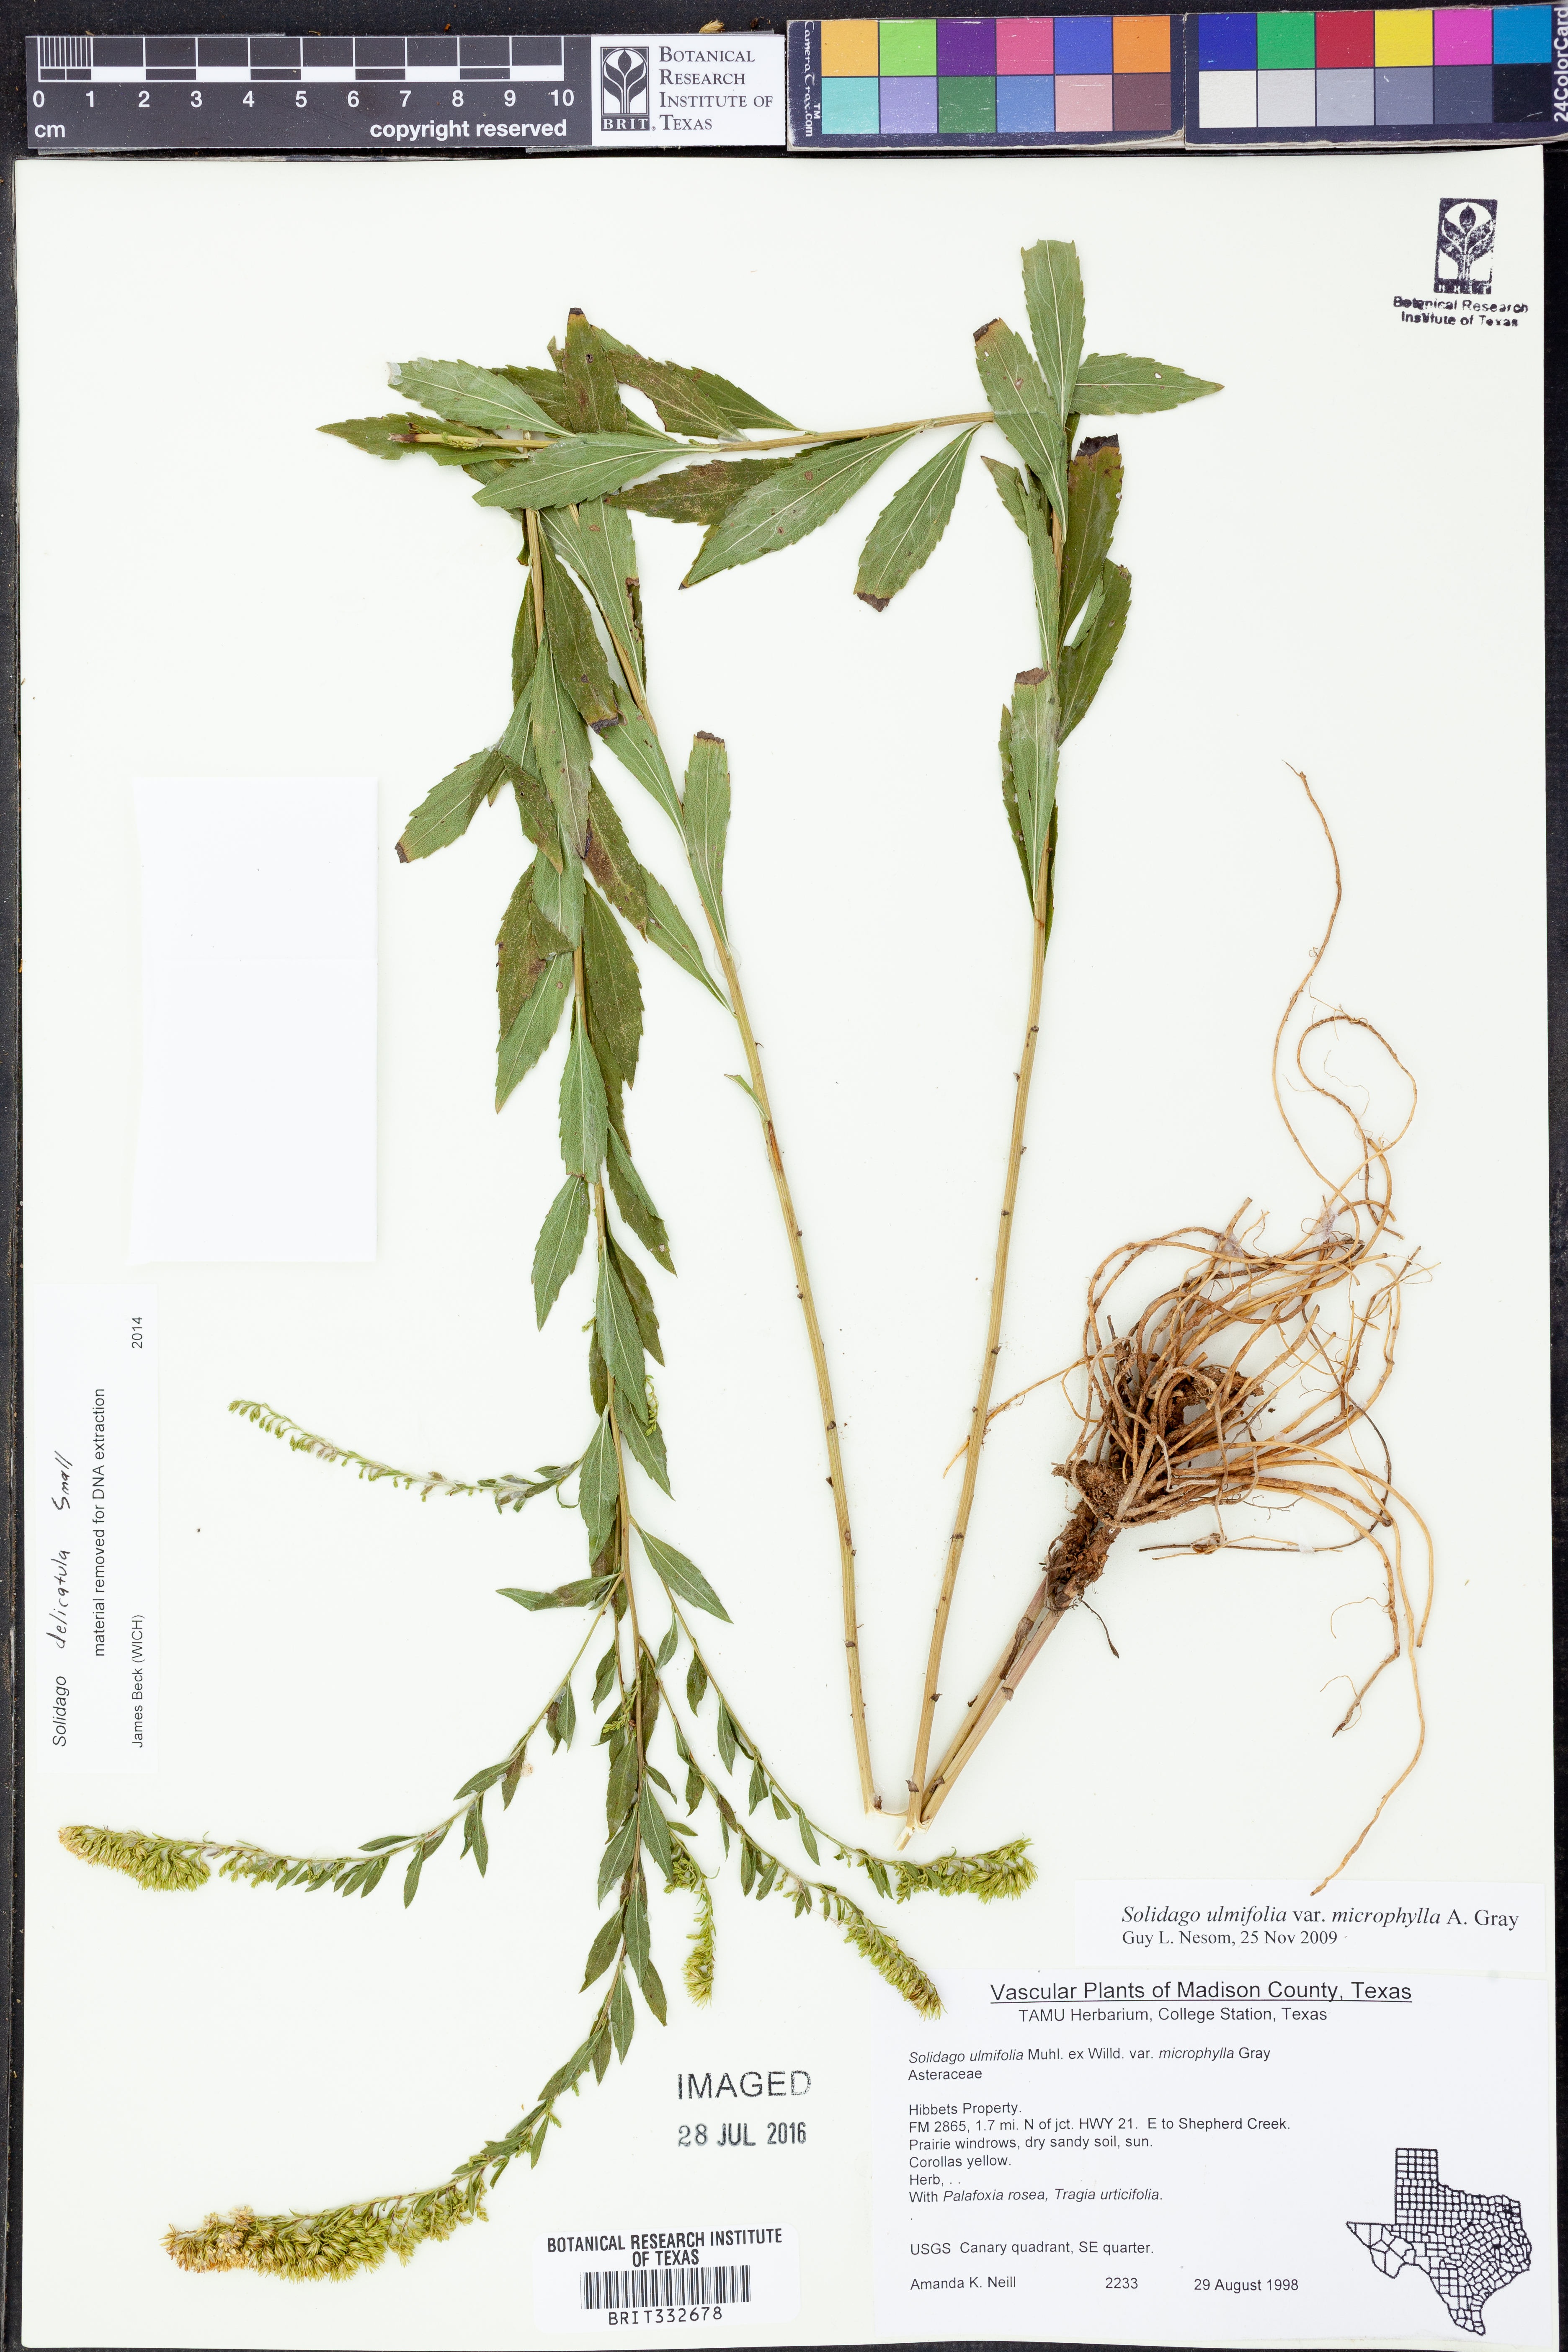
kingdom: Plantae
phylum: Tracheophyta
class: Magnoliopsida
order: Asterales
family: Asteraceae
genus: Solidago
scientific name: Solidago delicatula
